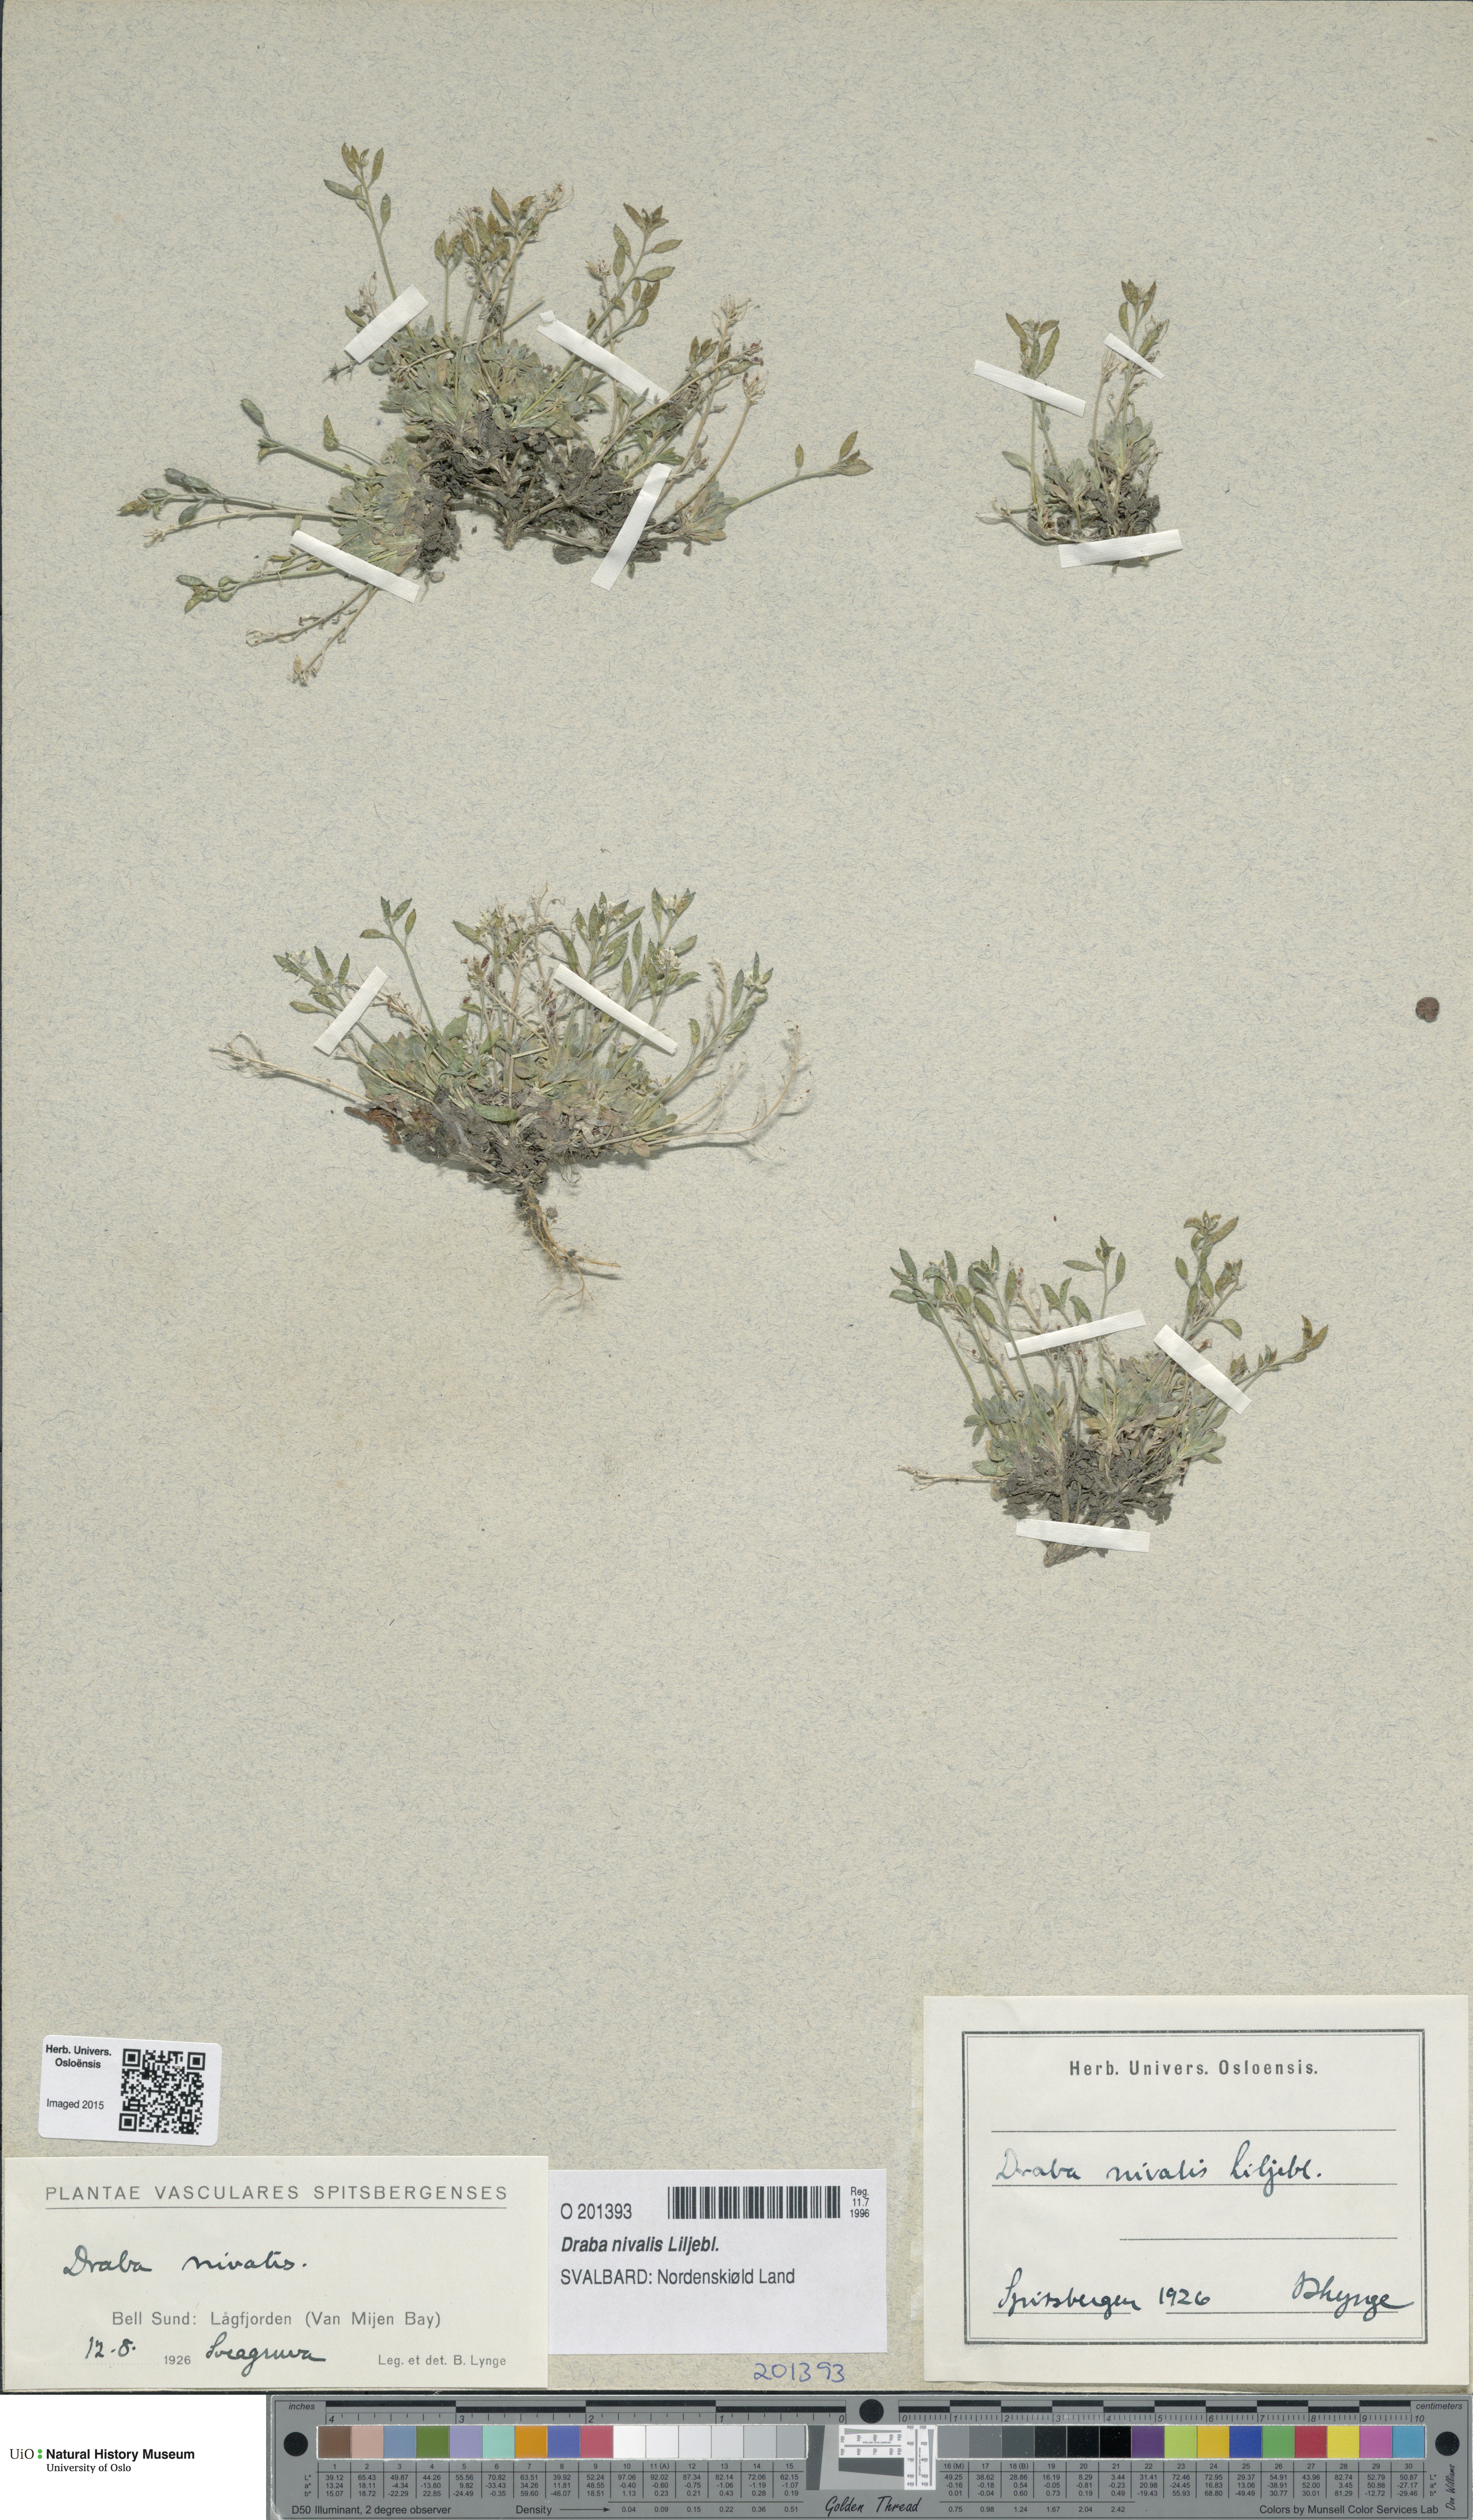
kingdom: Plantae
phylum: Tracheophyta
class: Magnoliopsida
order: Brassicales
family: Brassicaceae
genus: Draba
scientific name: Draba nivalis
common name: Snow draba
